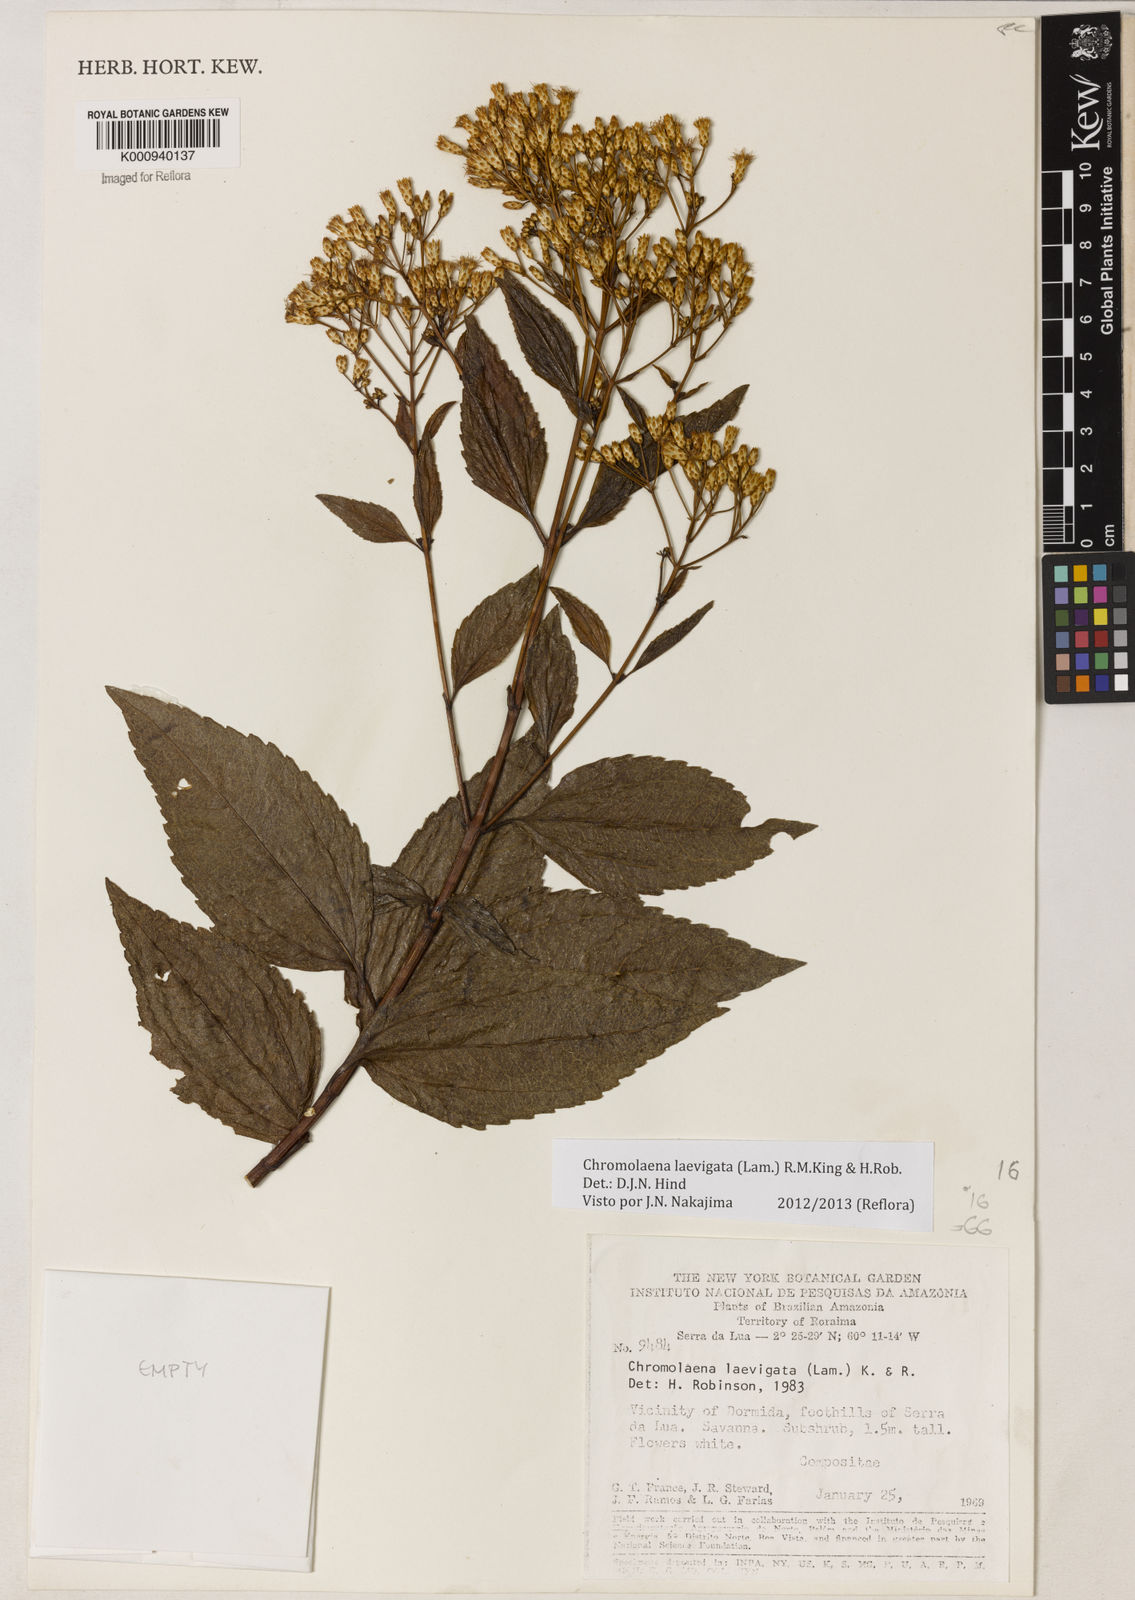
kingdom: Plantae
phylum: Tracheophyta
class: Magnoliopsida
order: Asterales
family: Asteraceae
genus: Chromolaena
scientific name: Chromolaena laevigata
